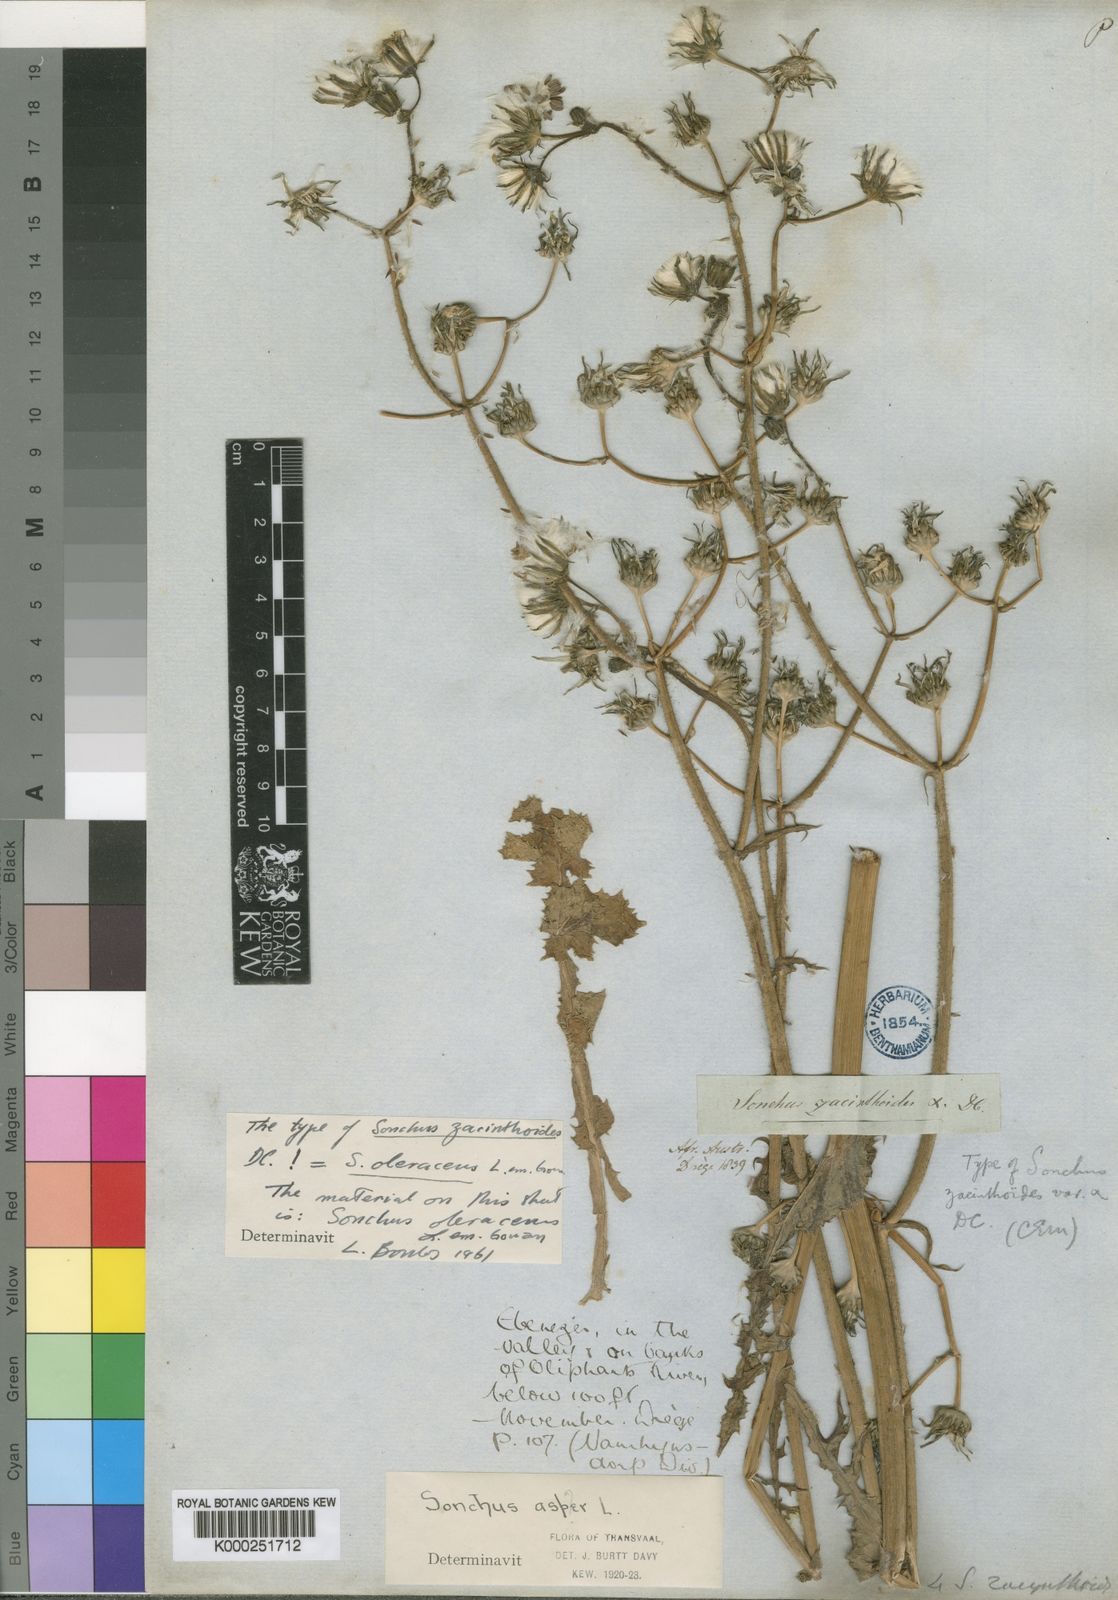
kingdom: Plantae
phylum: Tracheophyta
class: Magnoliopsida
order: Asterales
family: Asteraceae
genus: Sonchus
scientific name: Sonchus oleraceus
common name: Common sowthistle
